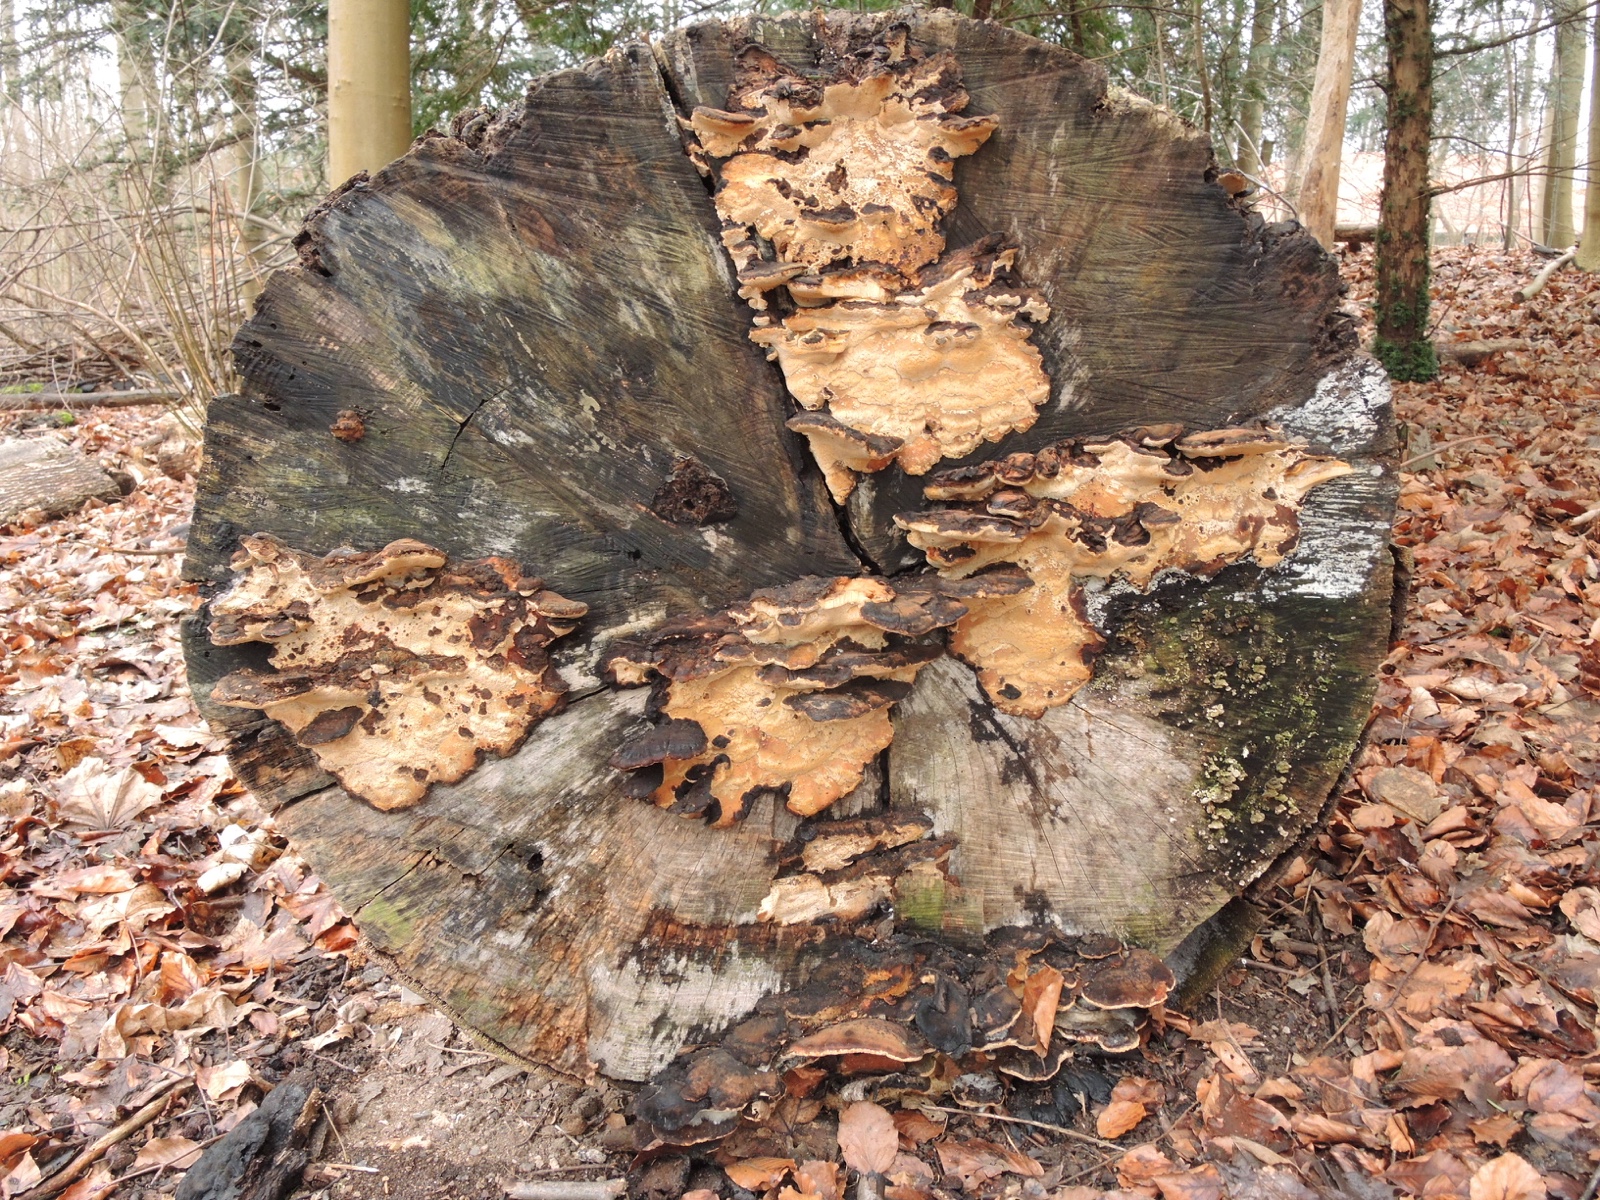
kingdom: Fungi
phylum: Basidiomycota
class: Agaricomycetes
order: Polyporales
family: Ischnodermataceae
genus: Ischnoderma
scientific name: Ischnoderma resinosum
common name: løv-tjæreporesvamp
